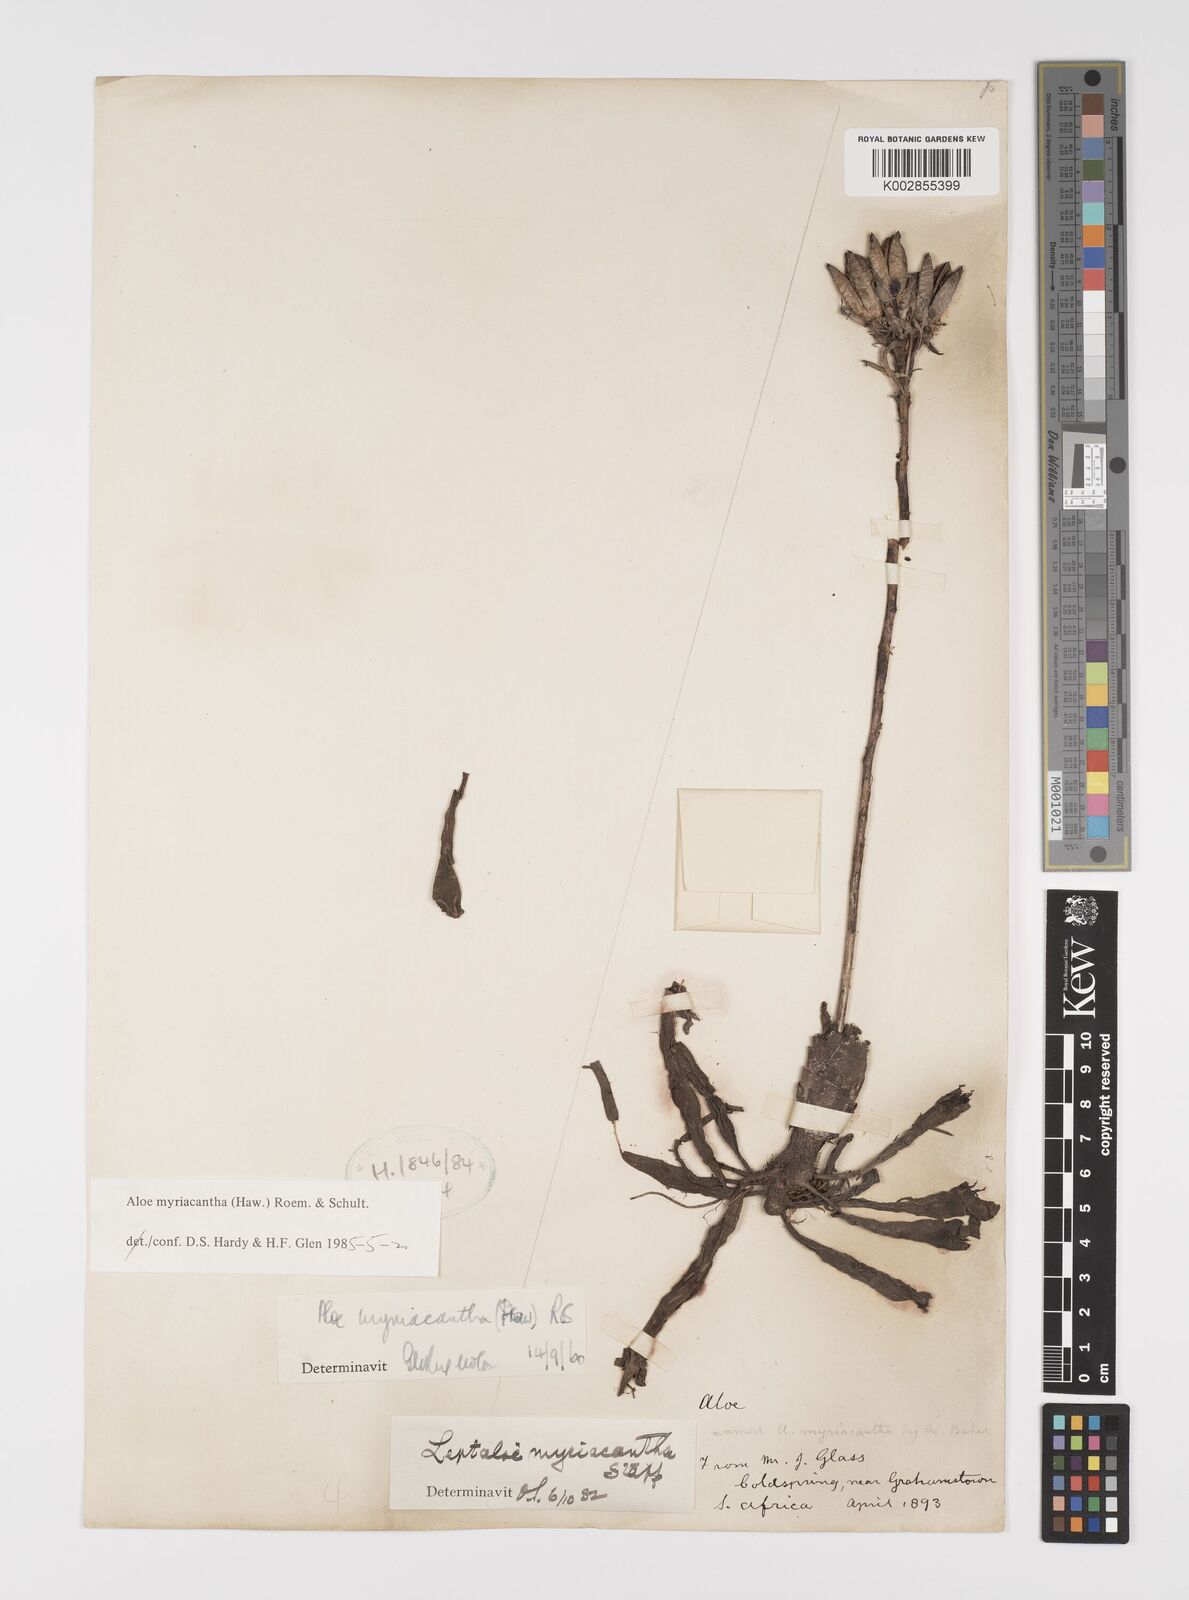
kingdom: Plantae
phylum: Tracheophyta
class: Liliopsida
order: Asparagales
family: Asphodelaceae
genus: Aloe
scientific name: Aloe myriacantha
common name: Grass aloe
